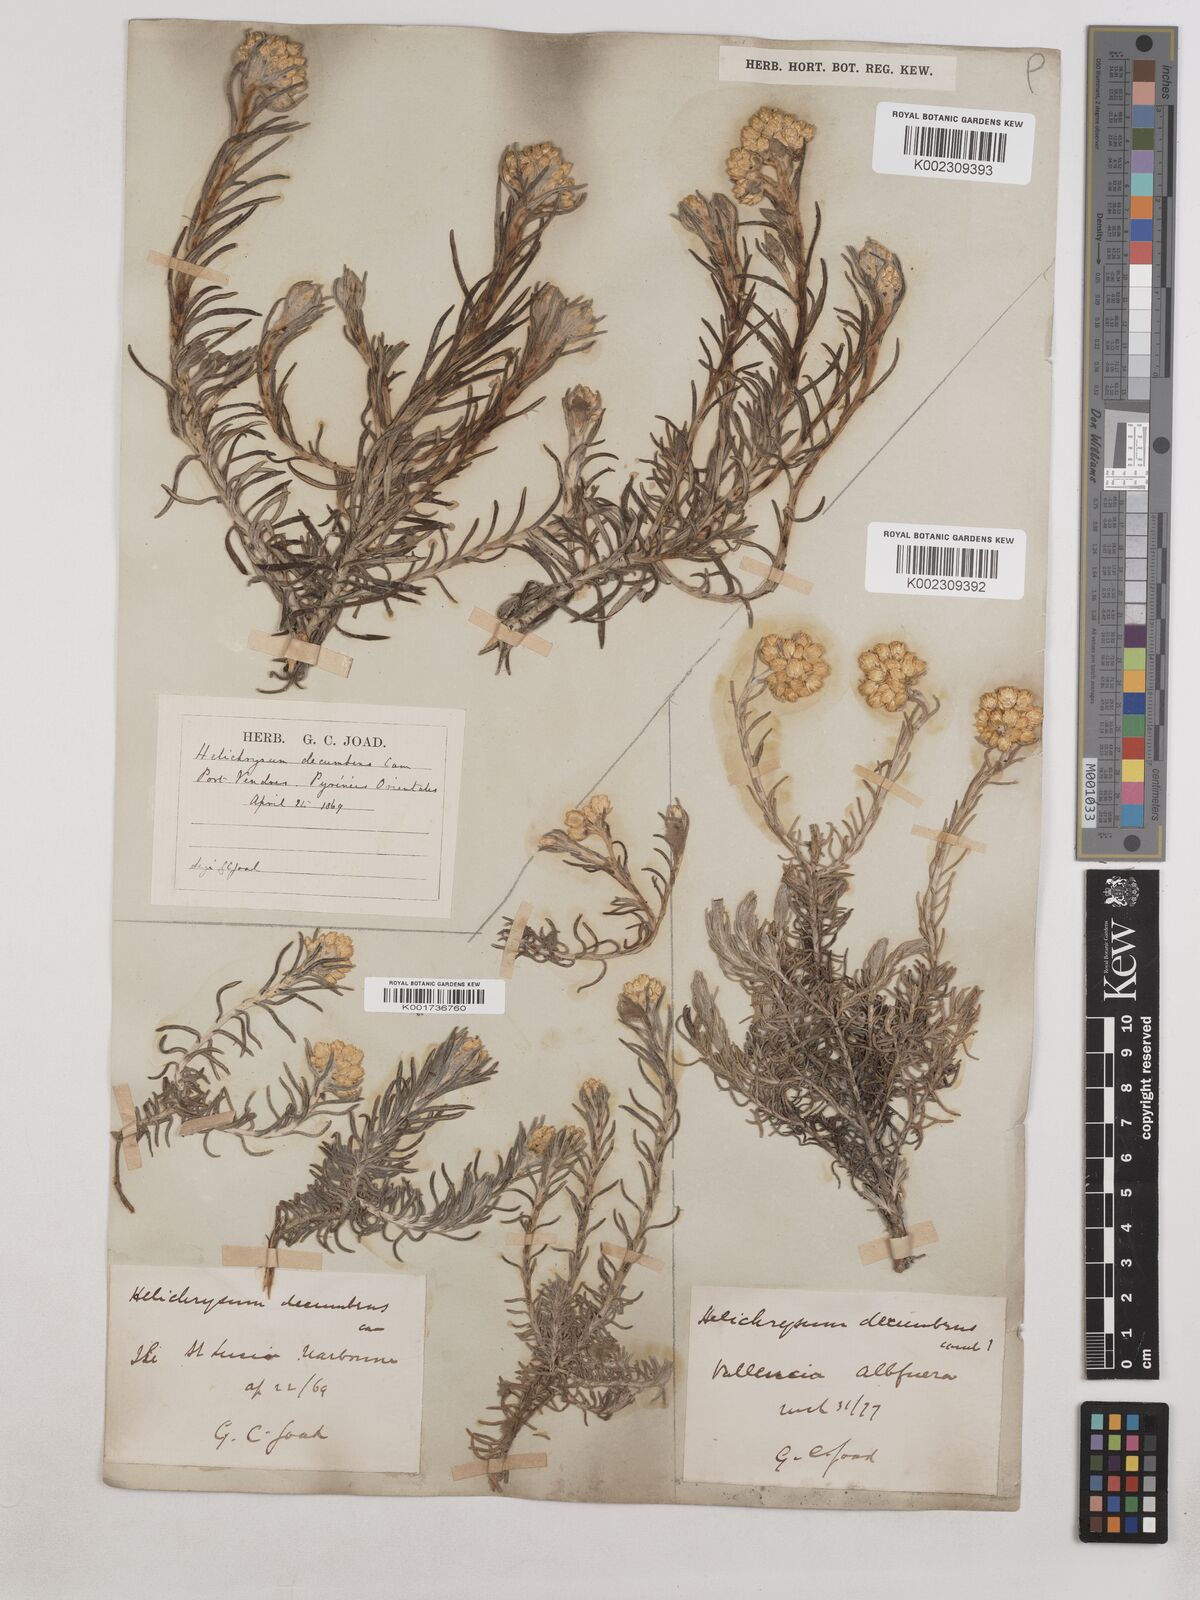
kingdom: Plantae
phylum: Tracheophyta
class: Magnoliopsida
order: Asterales
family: Asteraceae
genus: Helichrysum
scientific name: Helichrysum stoechas
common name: Goldilocks
